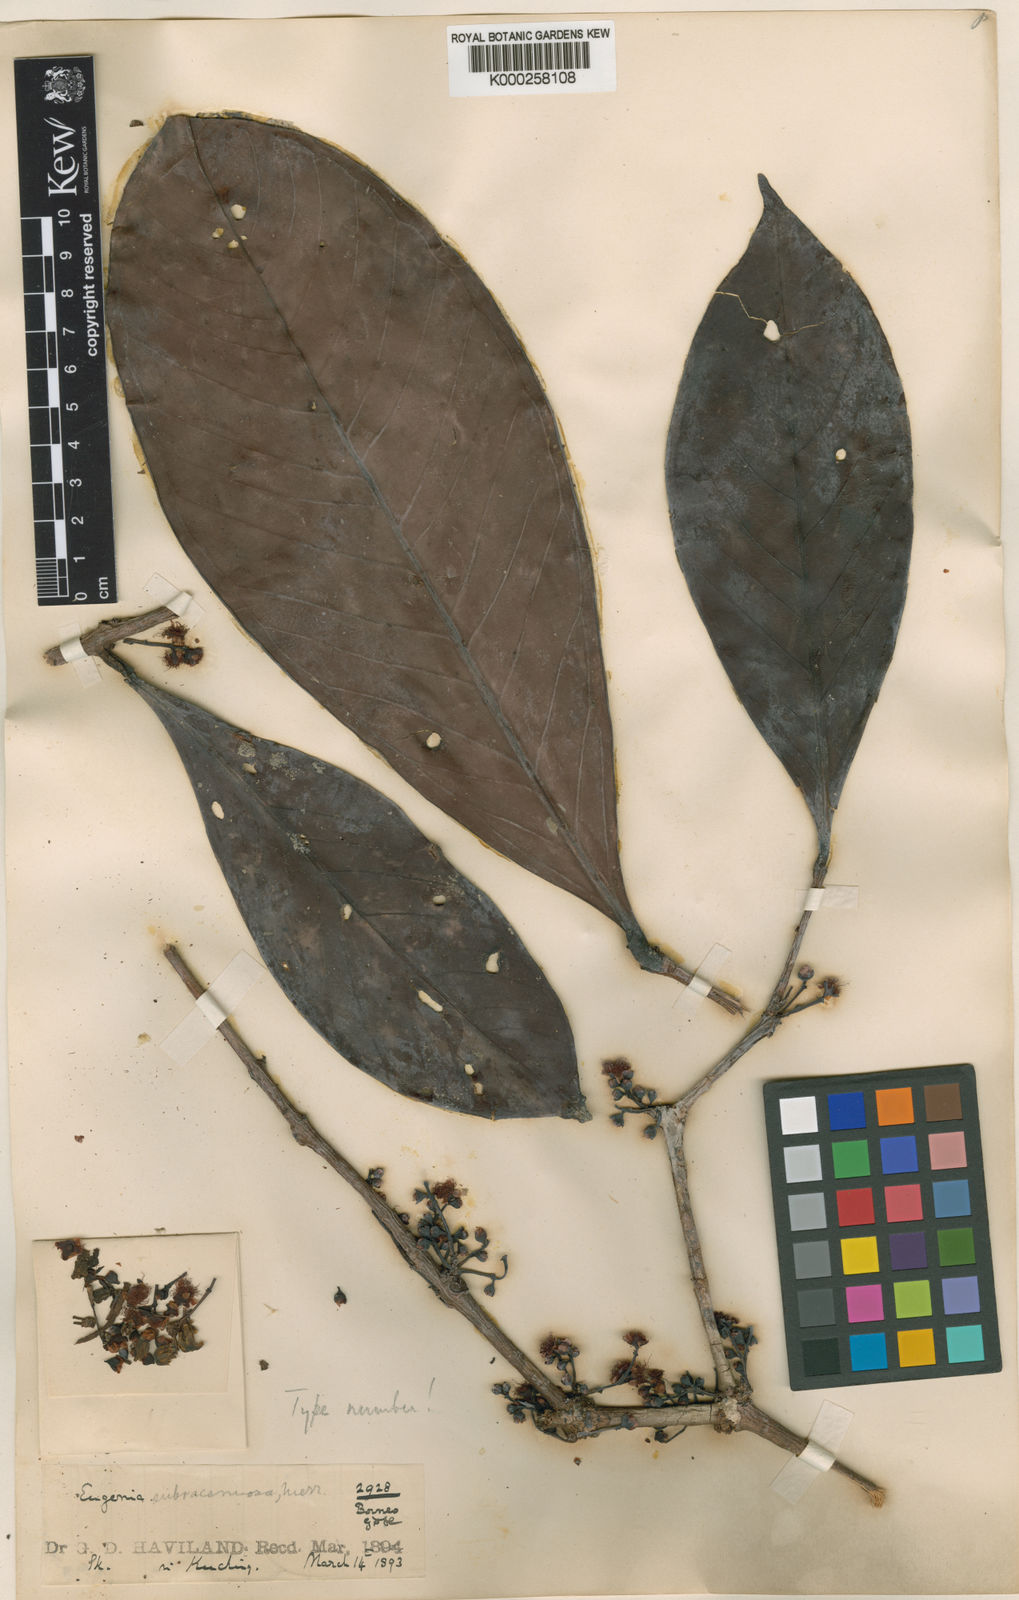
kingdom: Plantae
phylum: Tracheophyta
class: Magnoliopsida
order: Myrtales
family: Myrtaceae
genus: Syzygium
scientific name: Syzygium urceolatum
